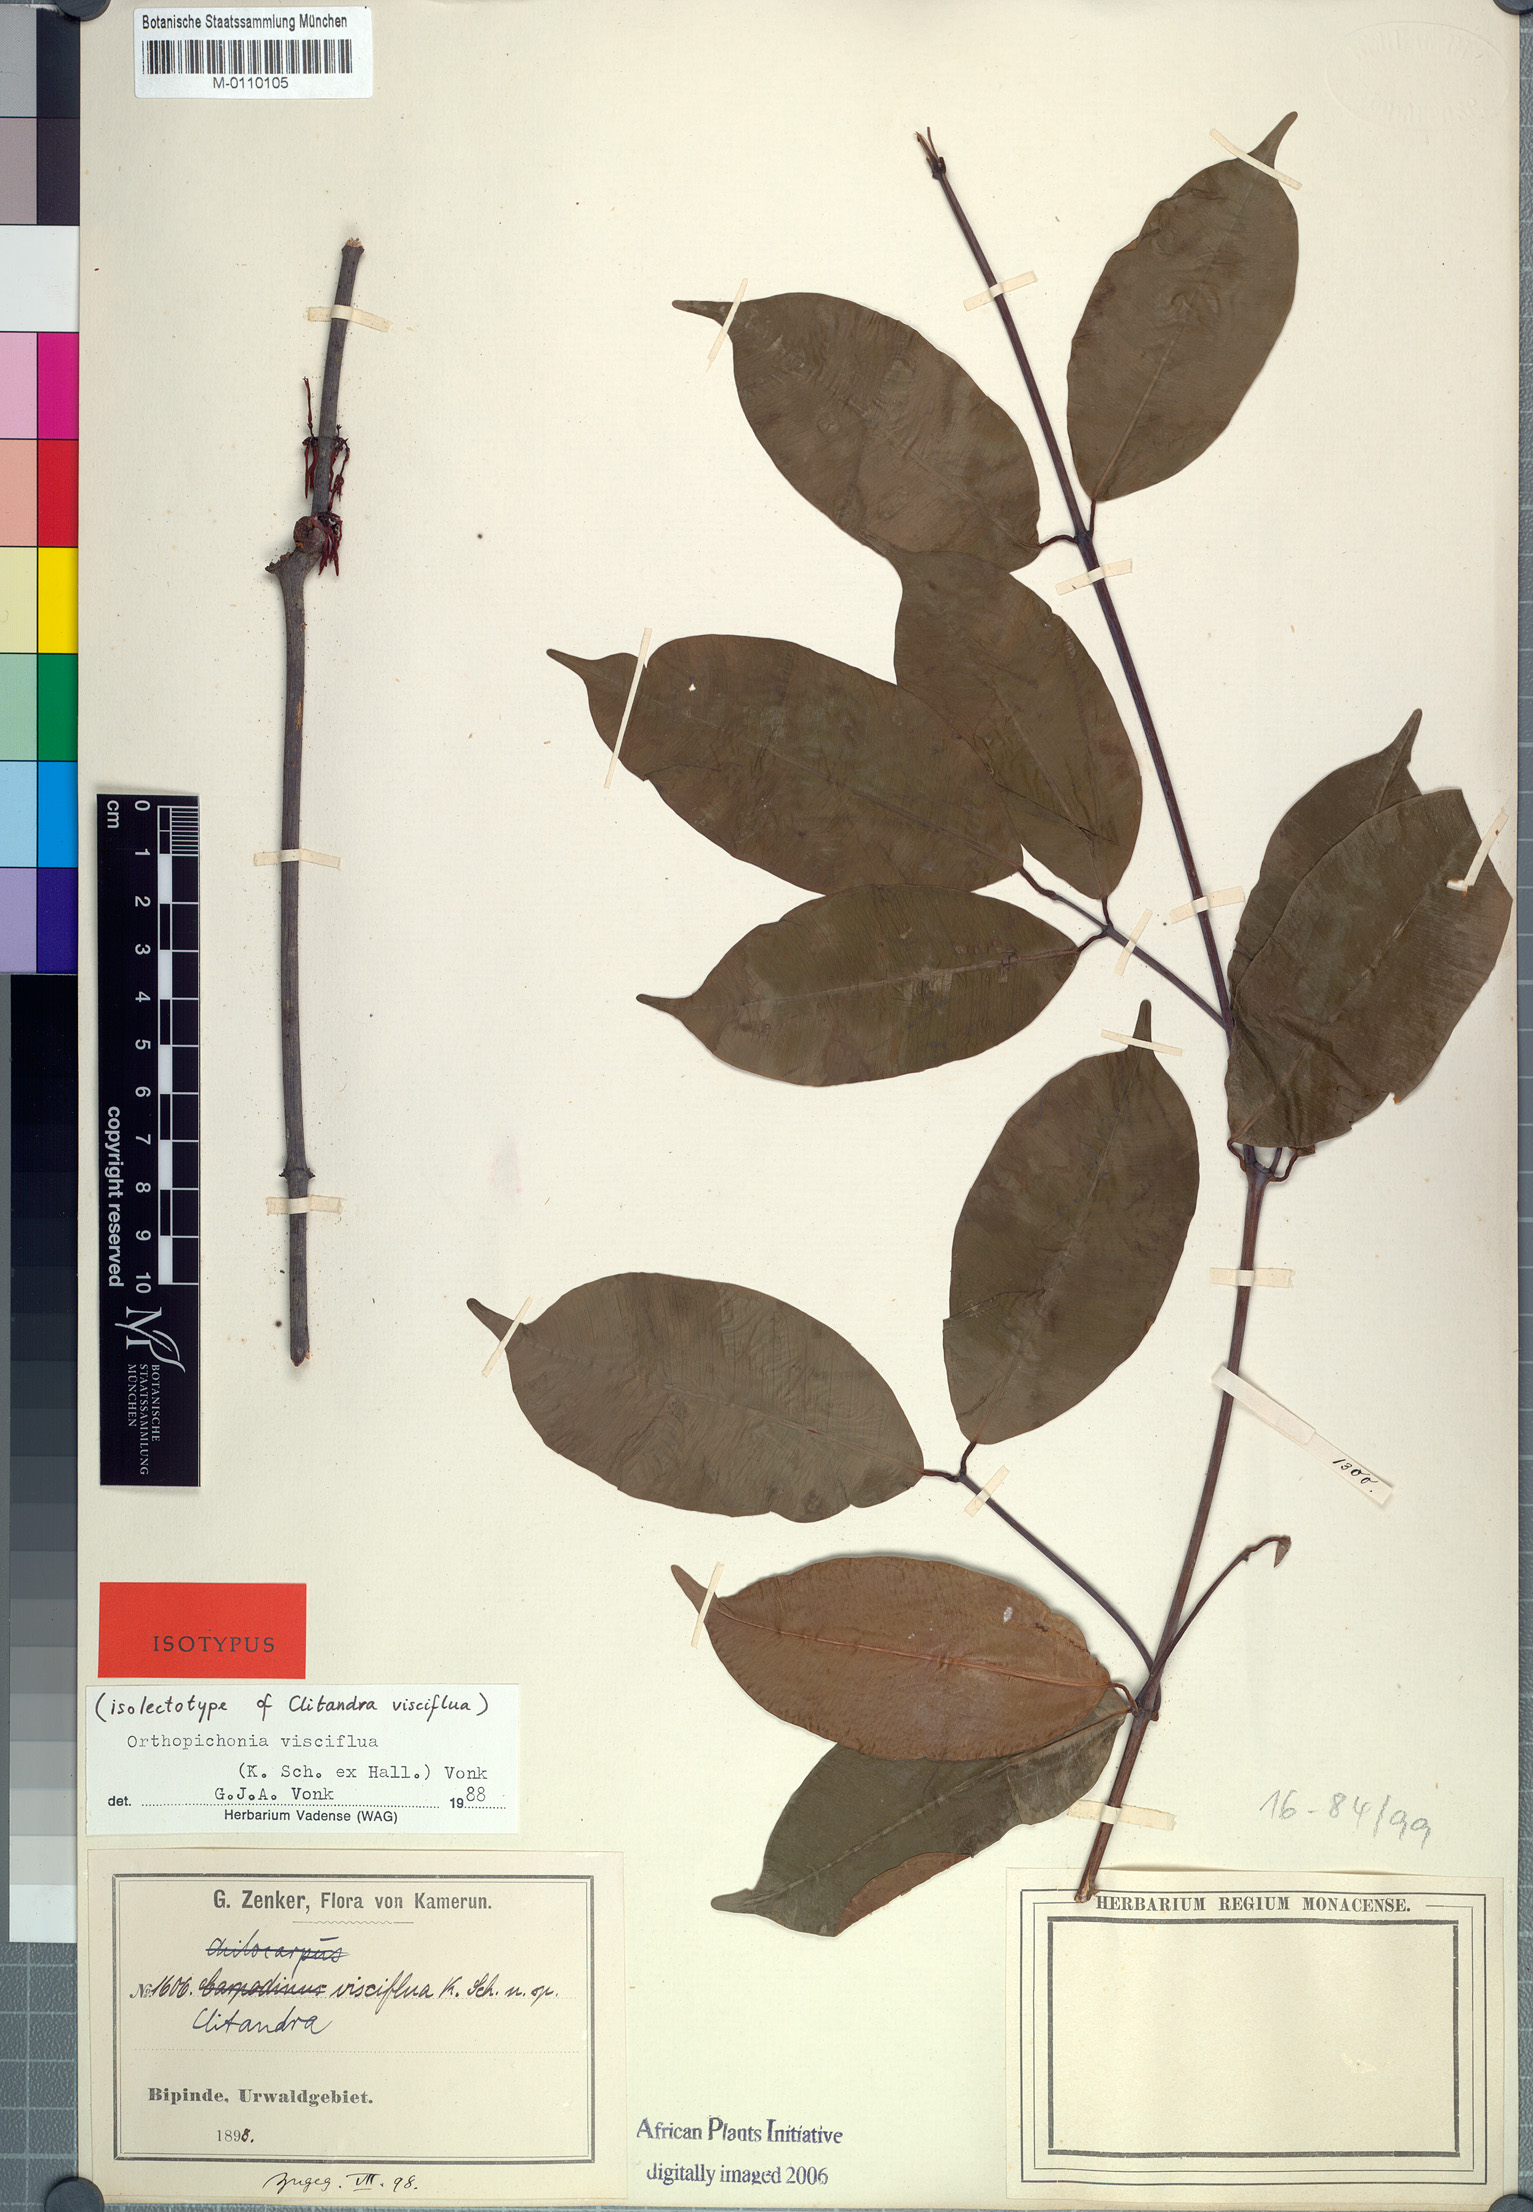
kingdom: Plantae
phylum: Tracheophyta
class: Magnoliopsida
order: Gentianales
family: Apocynaceae
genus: Orthopichonia
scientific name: Orthopichonia visciflua
